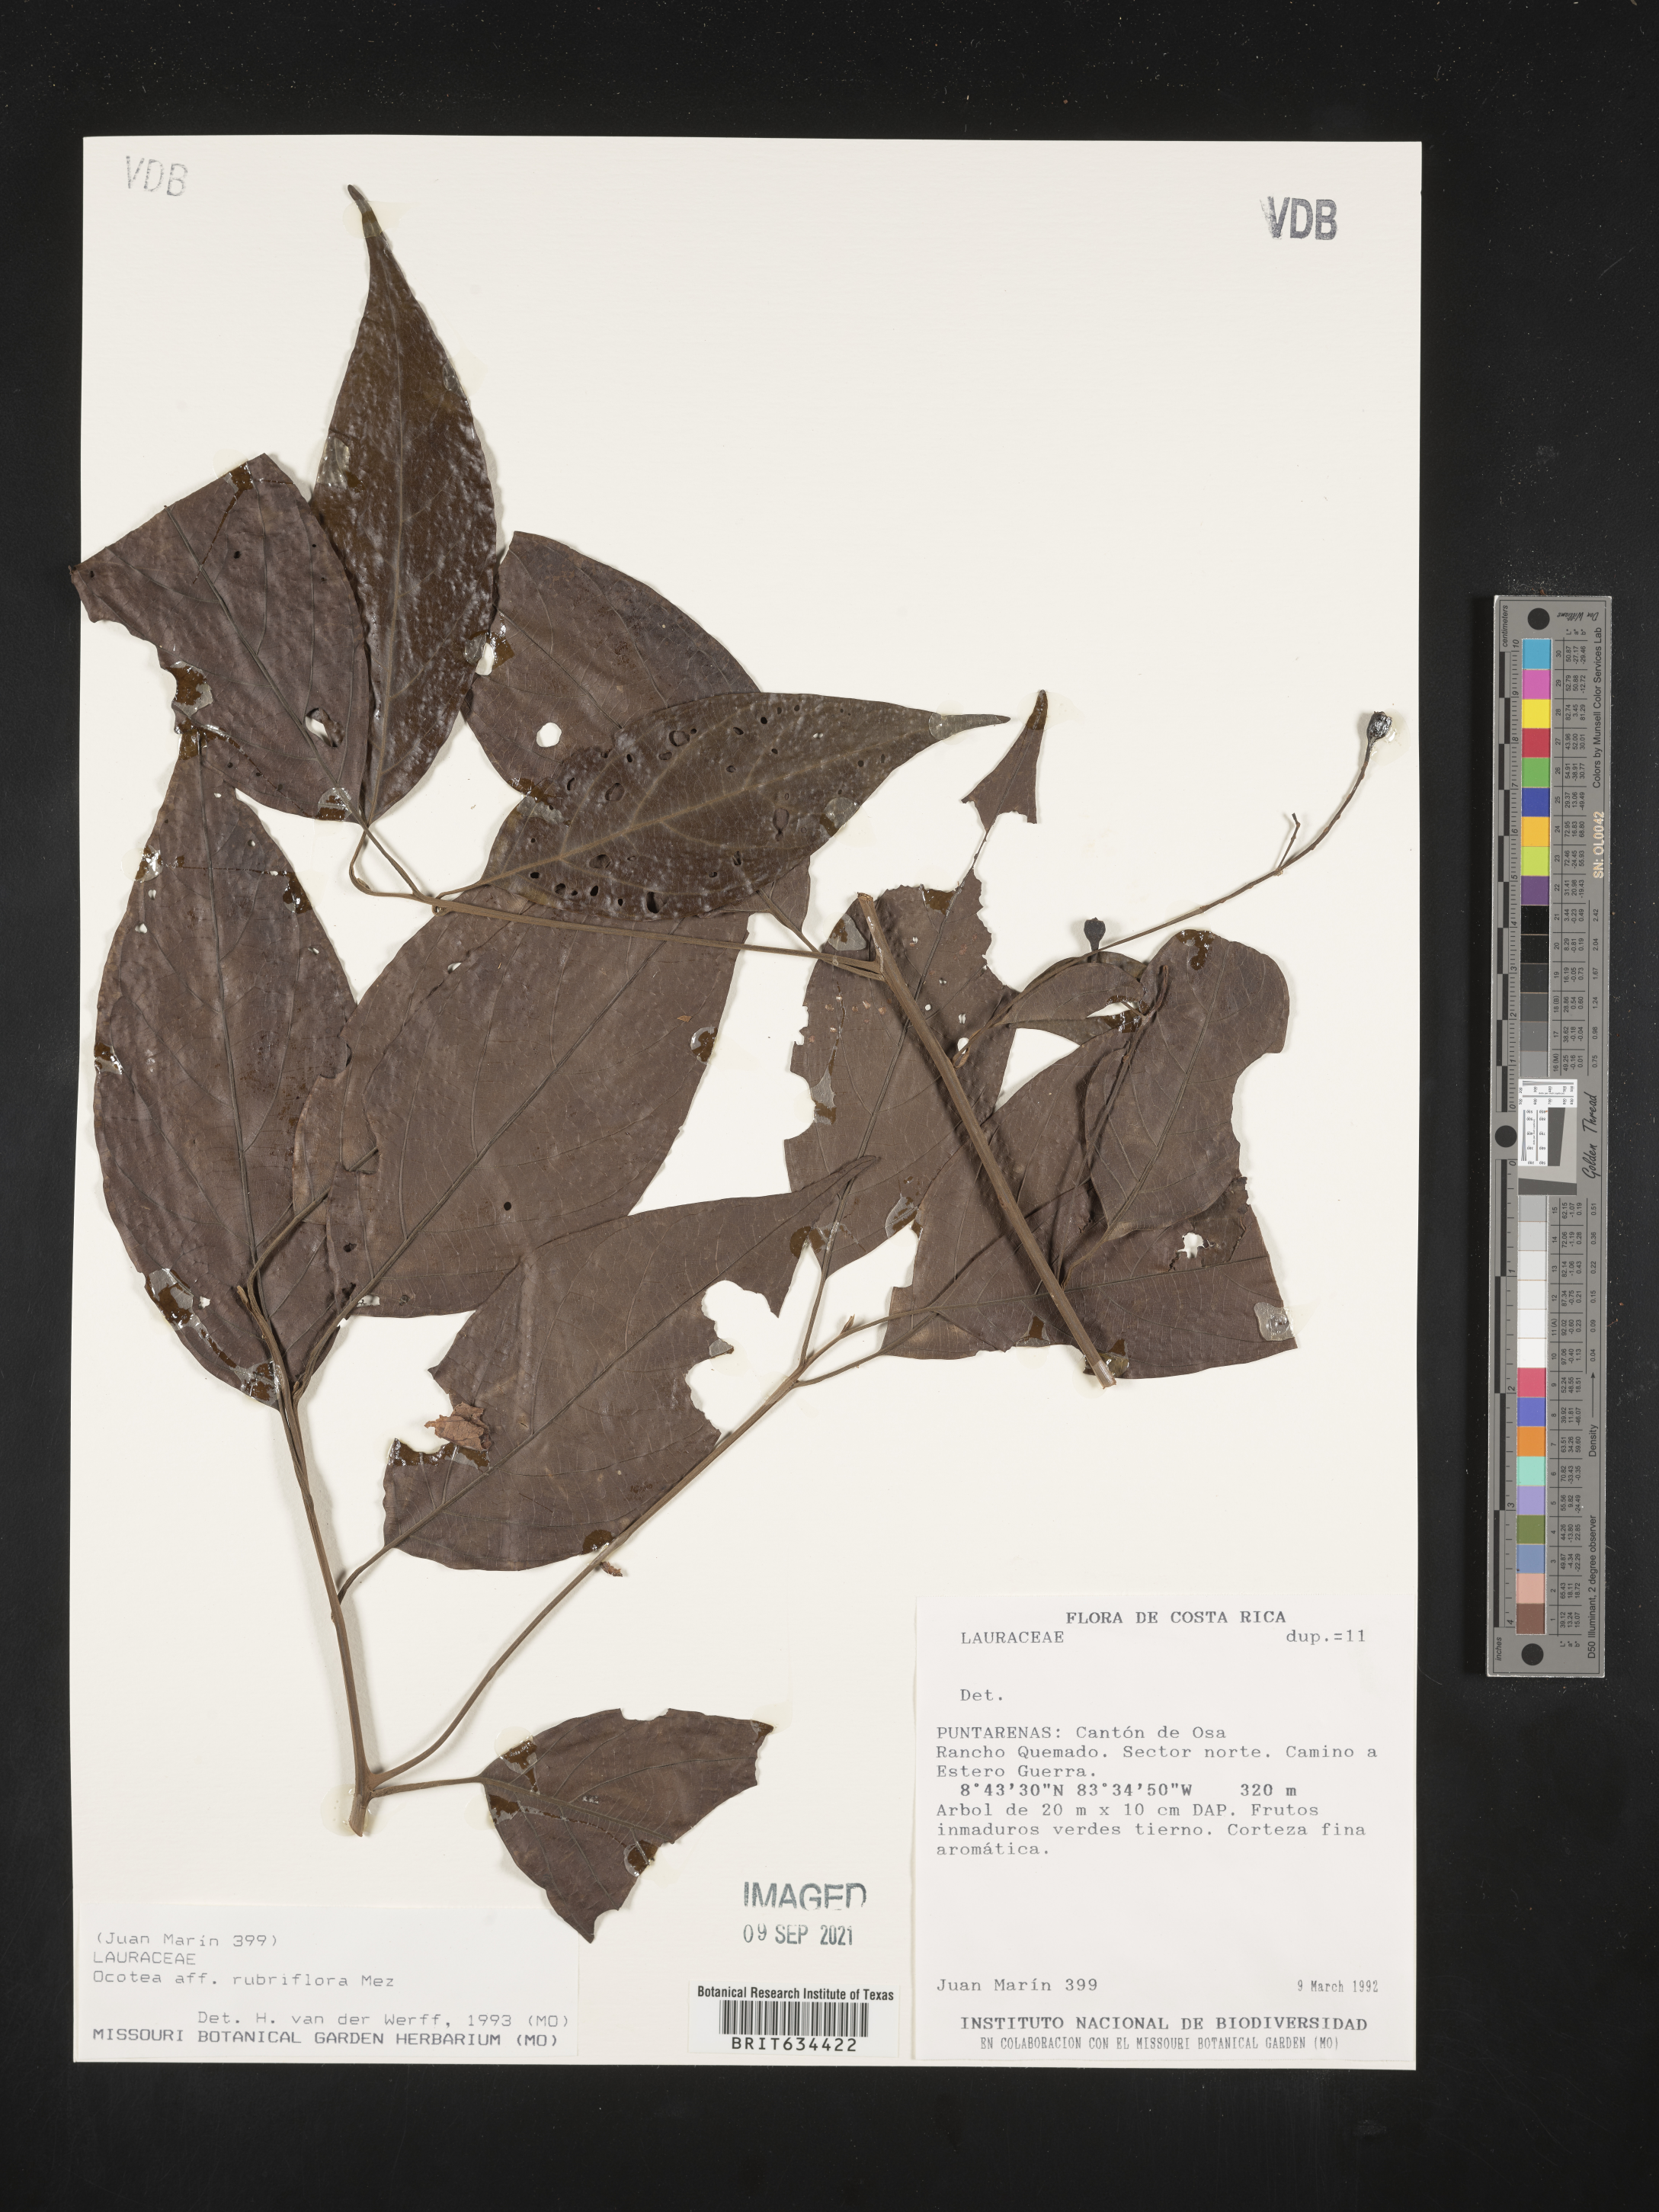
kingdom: Plantae
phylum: Tracheophyta
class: Magnoliopsida
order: Laurales
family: Lauraceae
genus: Ocotea
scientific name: Ocotea
